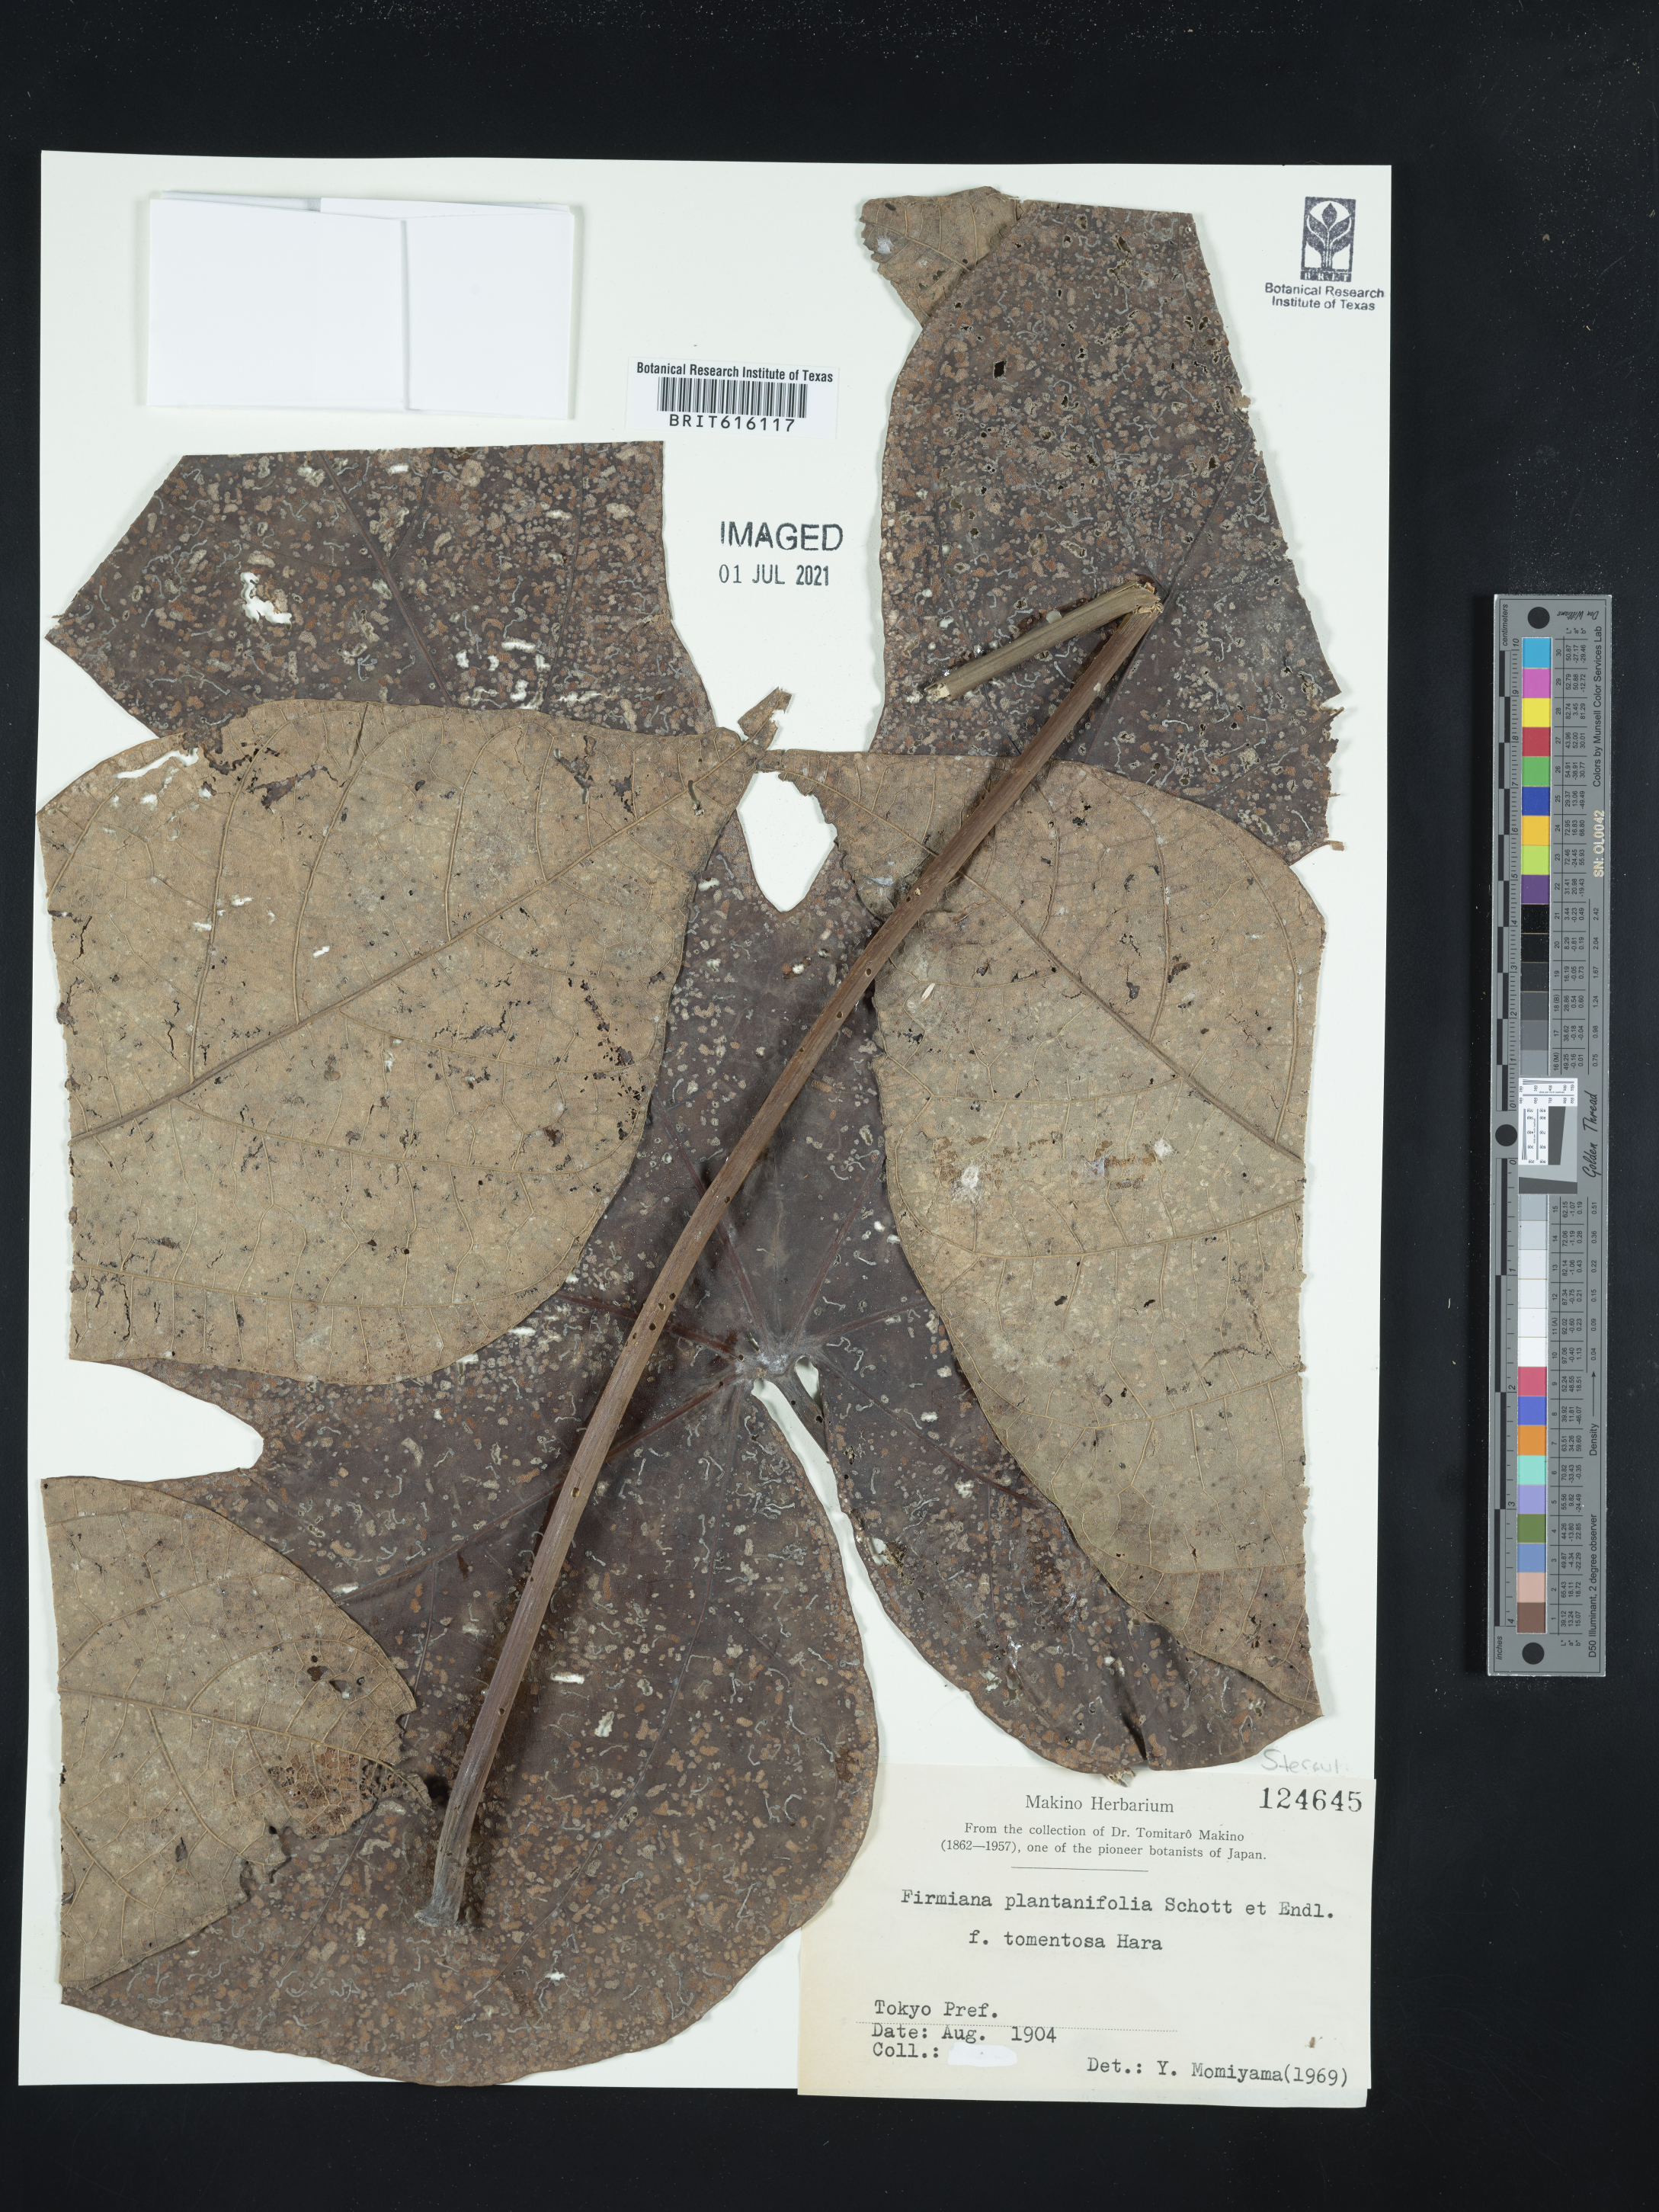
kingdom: Plantae
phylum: Tracheophyta
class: Magnoliopsida
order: Malvales
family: Malvaceae
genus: Firmiana
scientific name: Firmiana simplex
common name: Chinese parasoltree
